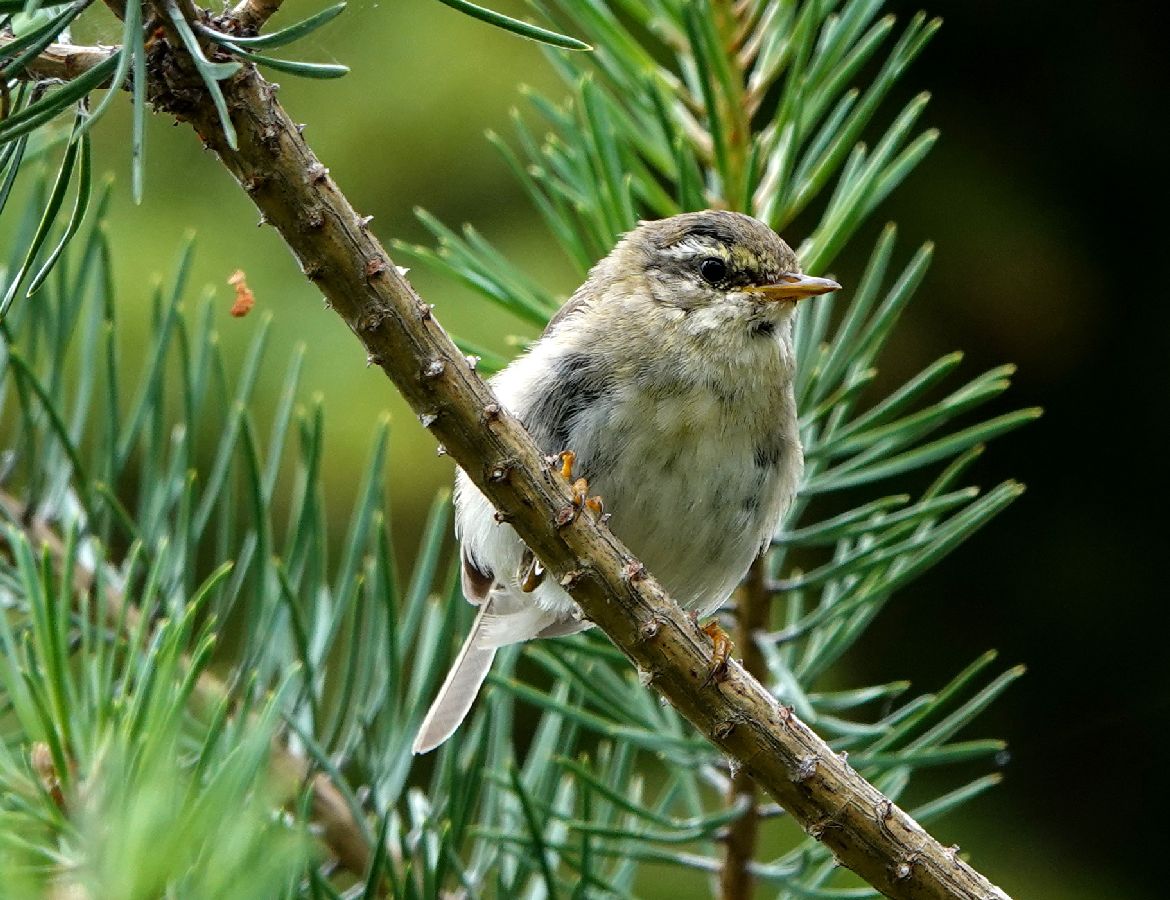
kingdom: Animalia
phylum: Chordata
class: Aves
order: Passeriformes
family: Phylloscopidae
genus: Phylloscopus
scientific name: Phylloscopus trochilus
